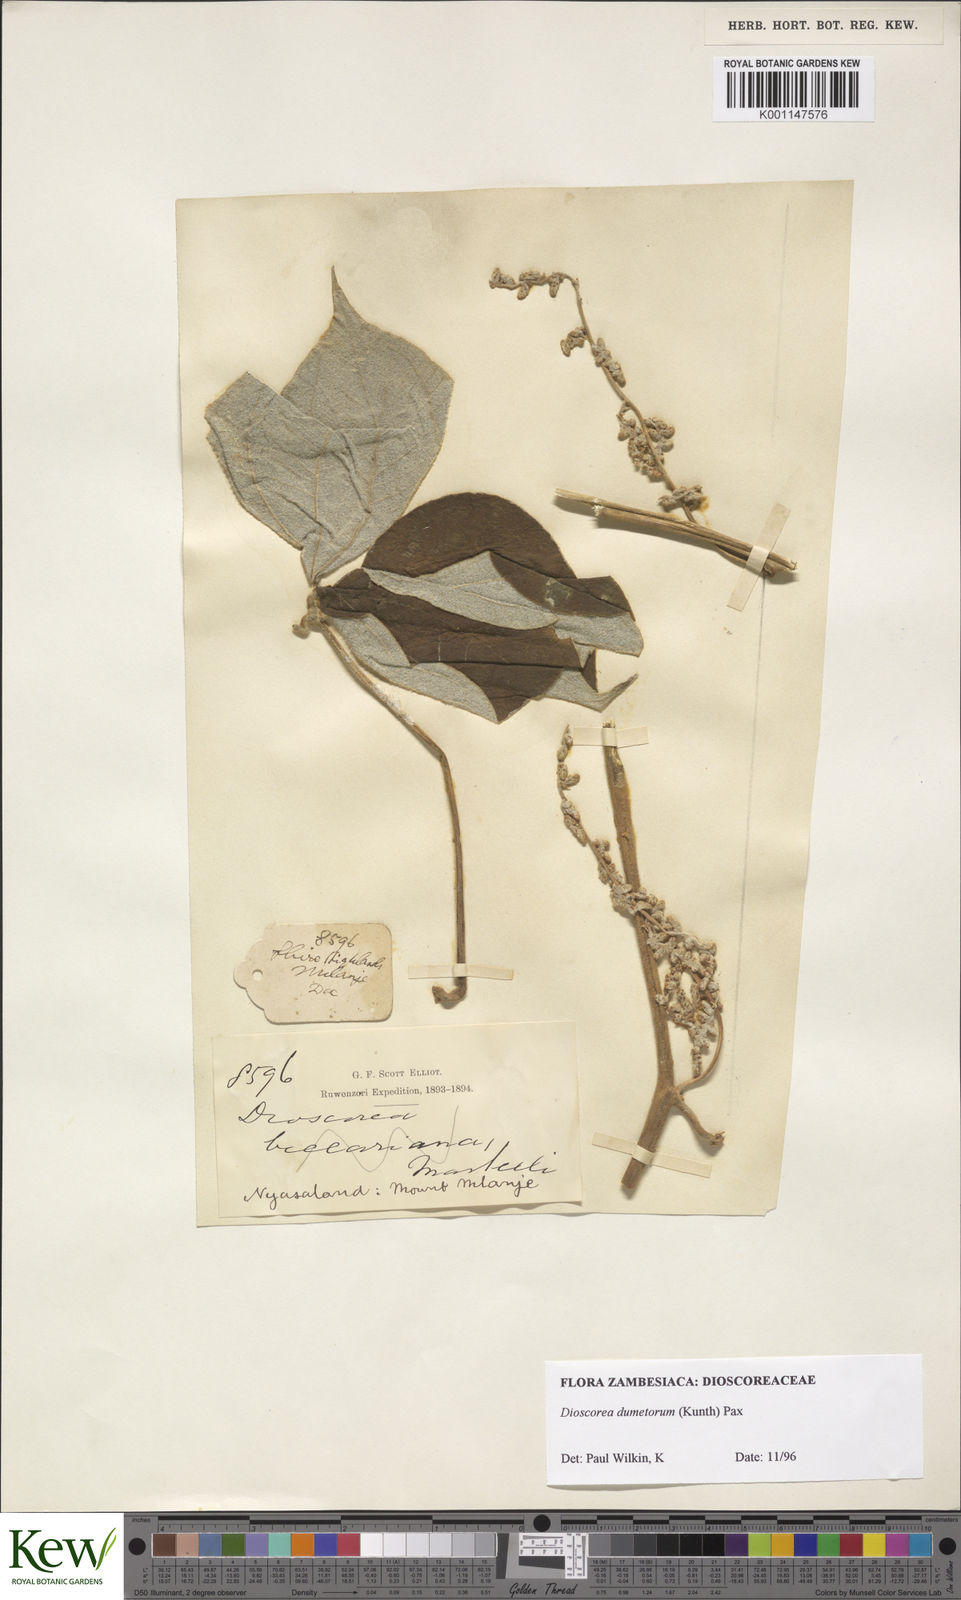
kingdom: Plantae
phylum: Tracheophyta
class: Liliopsida
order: Dioscoreales
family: Dioscoreaceae
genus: Dioscorea
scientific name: Dioscorea dumetorum
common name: African bitter yam
